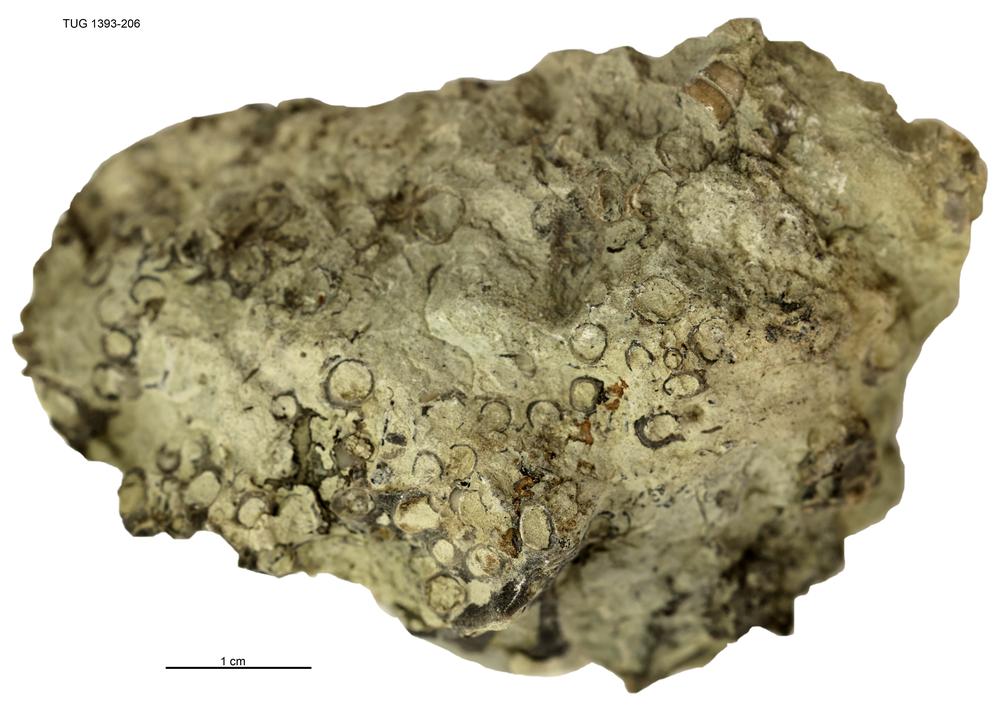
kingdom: Animalia
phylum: Cnidaria
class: Anthozoa
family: Auloporidae
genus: Eofletcheria
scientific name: Eofletcheria orvikui
